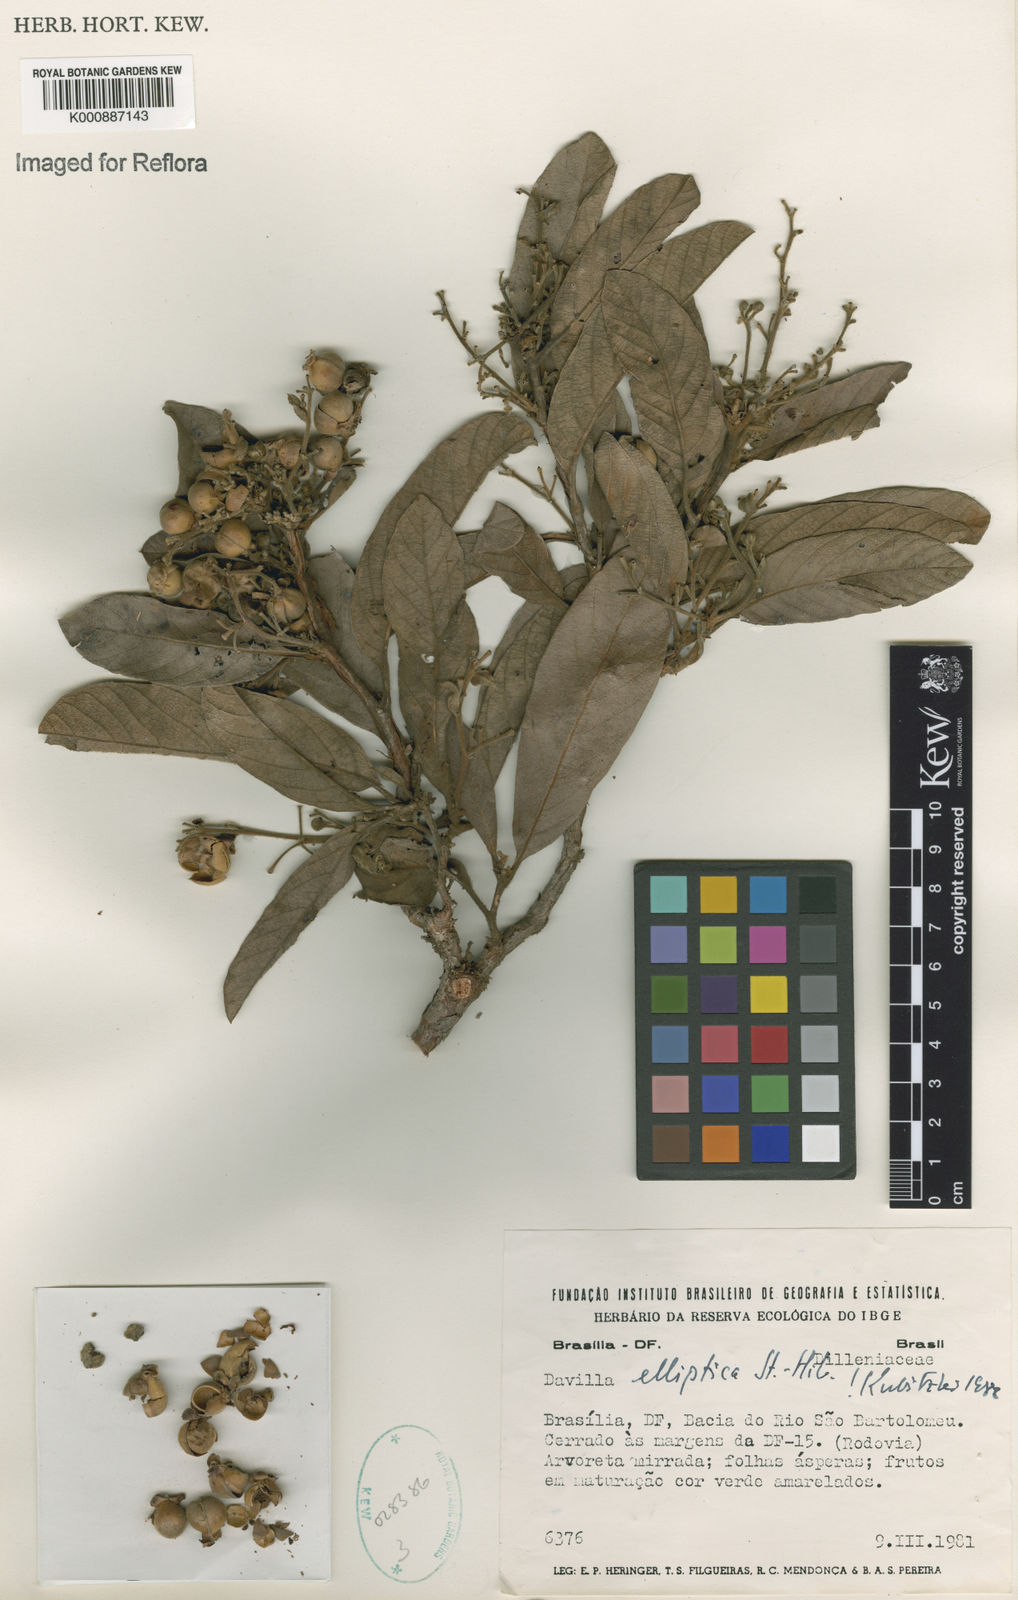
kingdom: Plantae
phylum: Tracheophyta
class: Magnoliopsida
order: Dilleniales
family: Dilleniaceae
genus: Davilla
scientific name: Davilla elliptica
